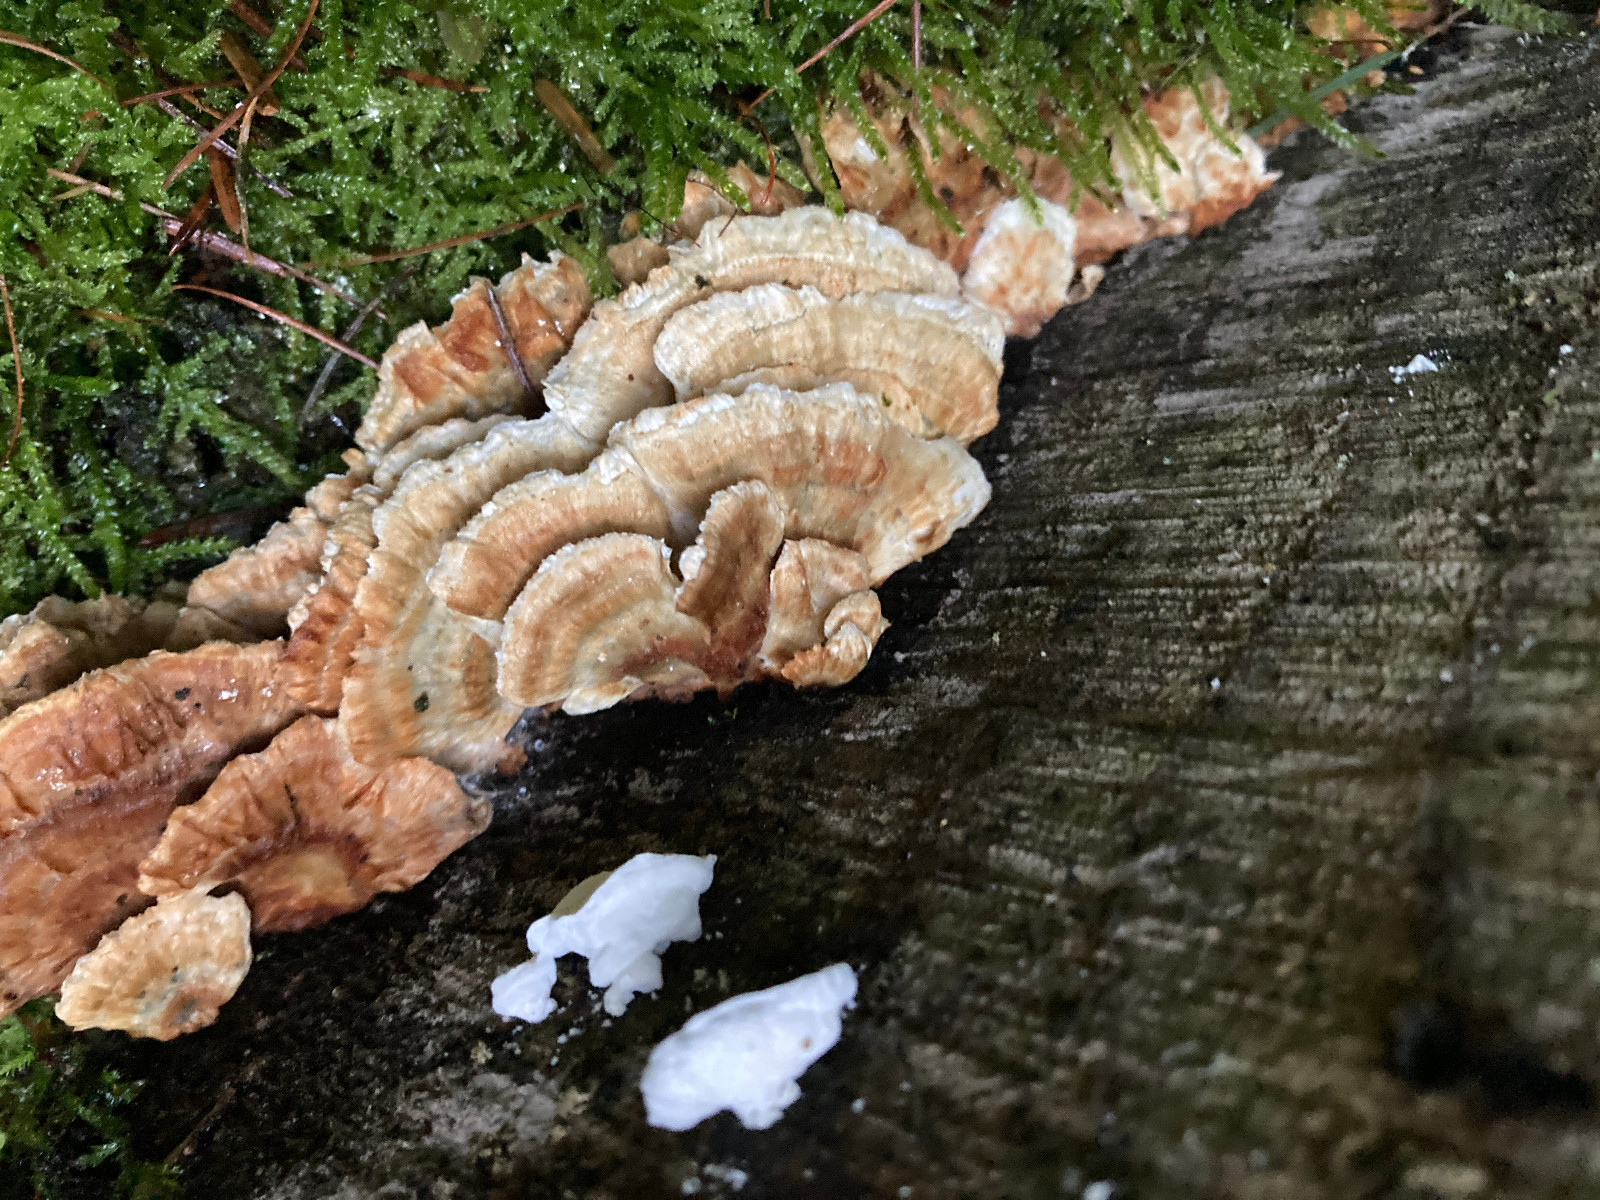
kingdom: Fungi
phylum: Basidiomycota
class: Agaricomycetes
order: Polyporales
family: Dacryobolaceae
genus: Oligoporus
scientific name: Oligoporus wakefieldiae
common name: række-kødporesvamp
